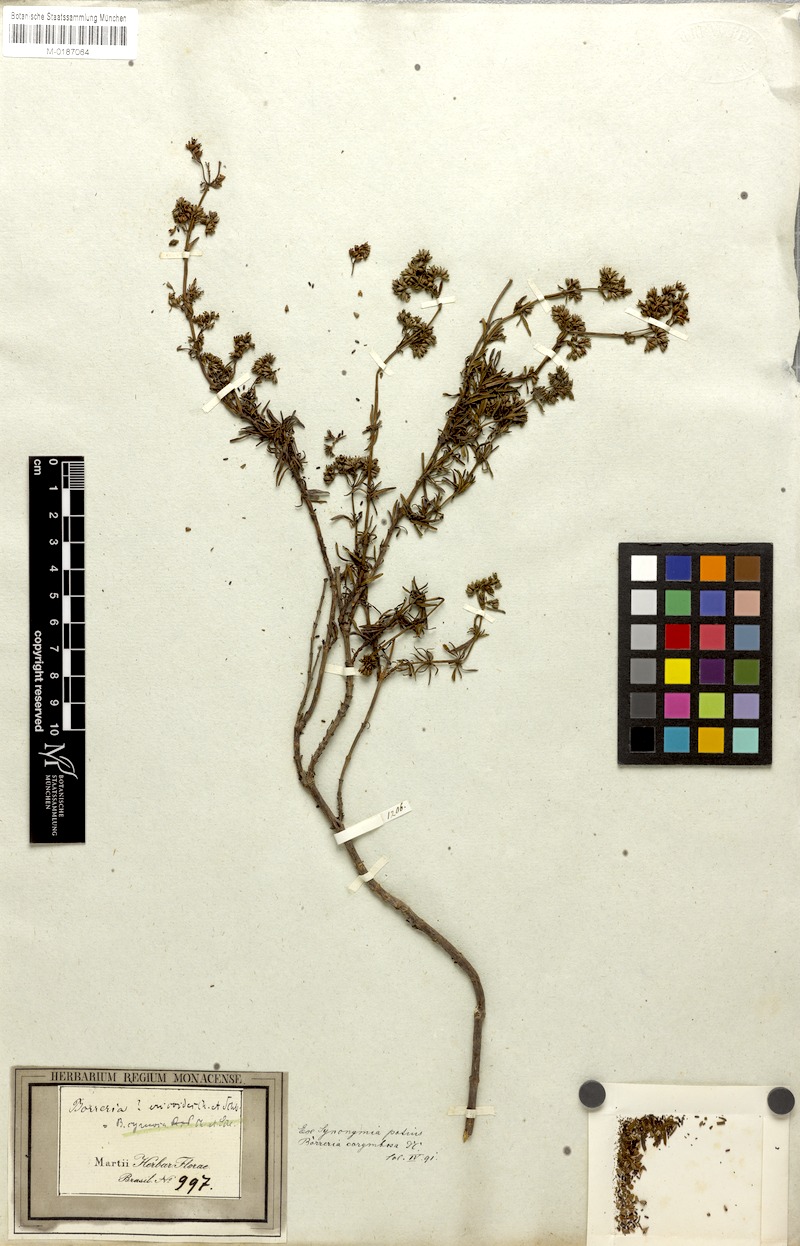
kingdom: Plantae
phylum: Tracheophyta
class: Magnoliopsida
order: Gentianales
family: Rubiaceae
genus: Galianthe
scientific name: Galianthe peruviana
